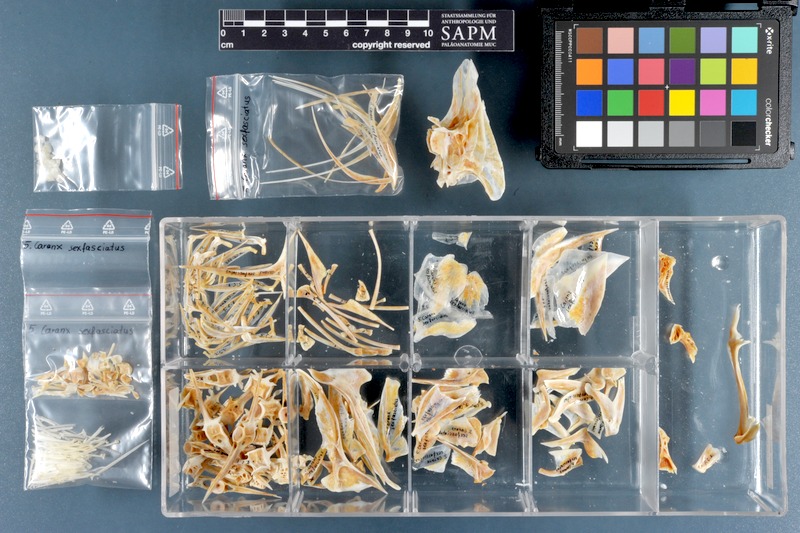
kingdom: Animalia
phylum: Chordata
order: Perciformes
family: Carangidae
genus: Caranx
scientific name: Caranx sexfasciatus
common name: Bigeye trevally
